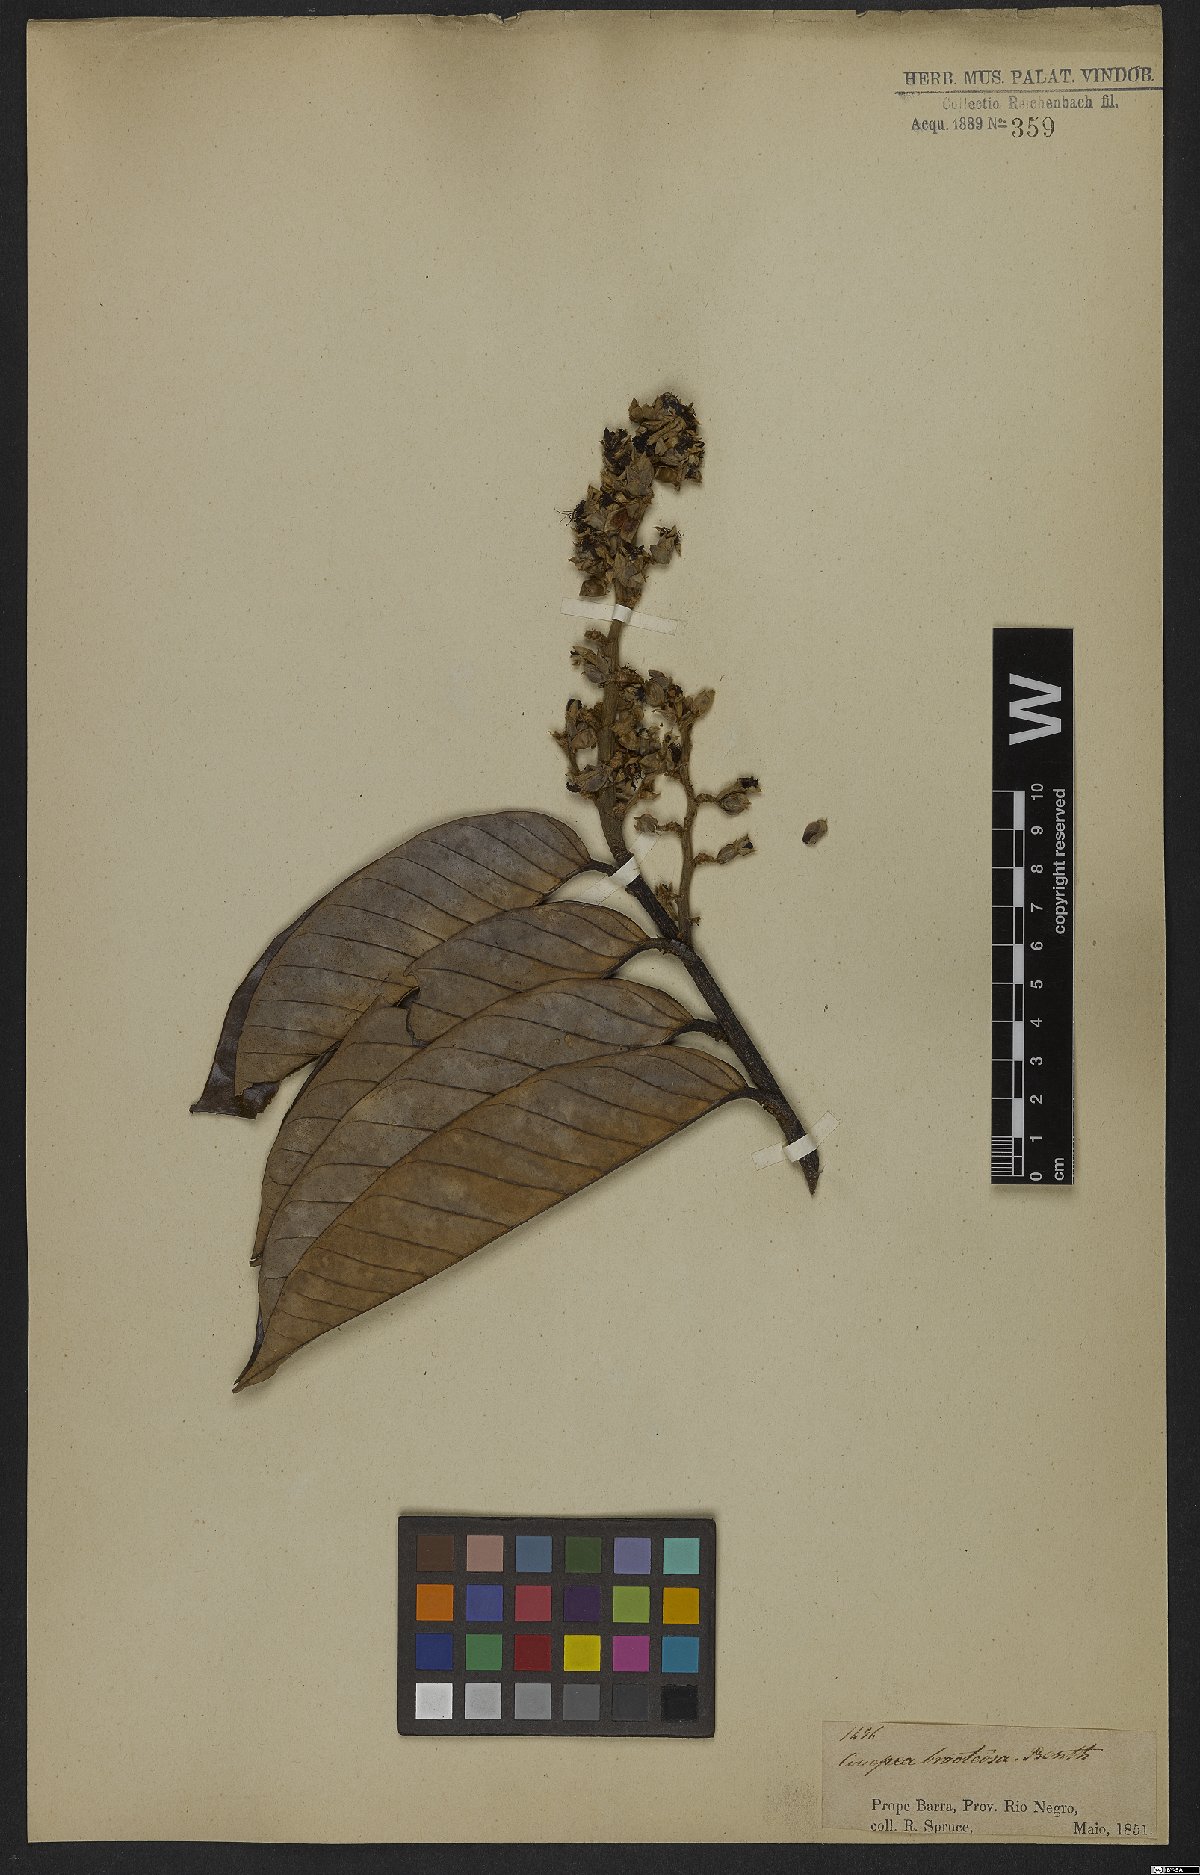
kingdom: Plantae
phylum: Tracheophyta
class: Magnoliopsida
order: Malpighiales
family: Chrysobalanaceae
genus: Couepia
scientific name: Couepia bracteosa
